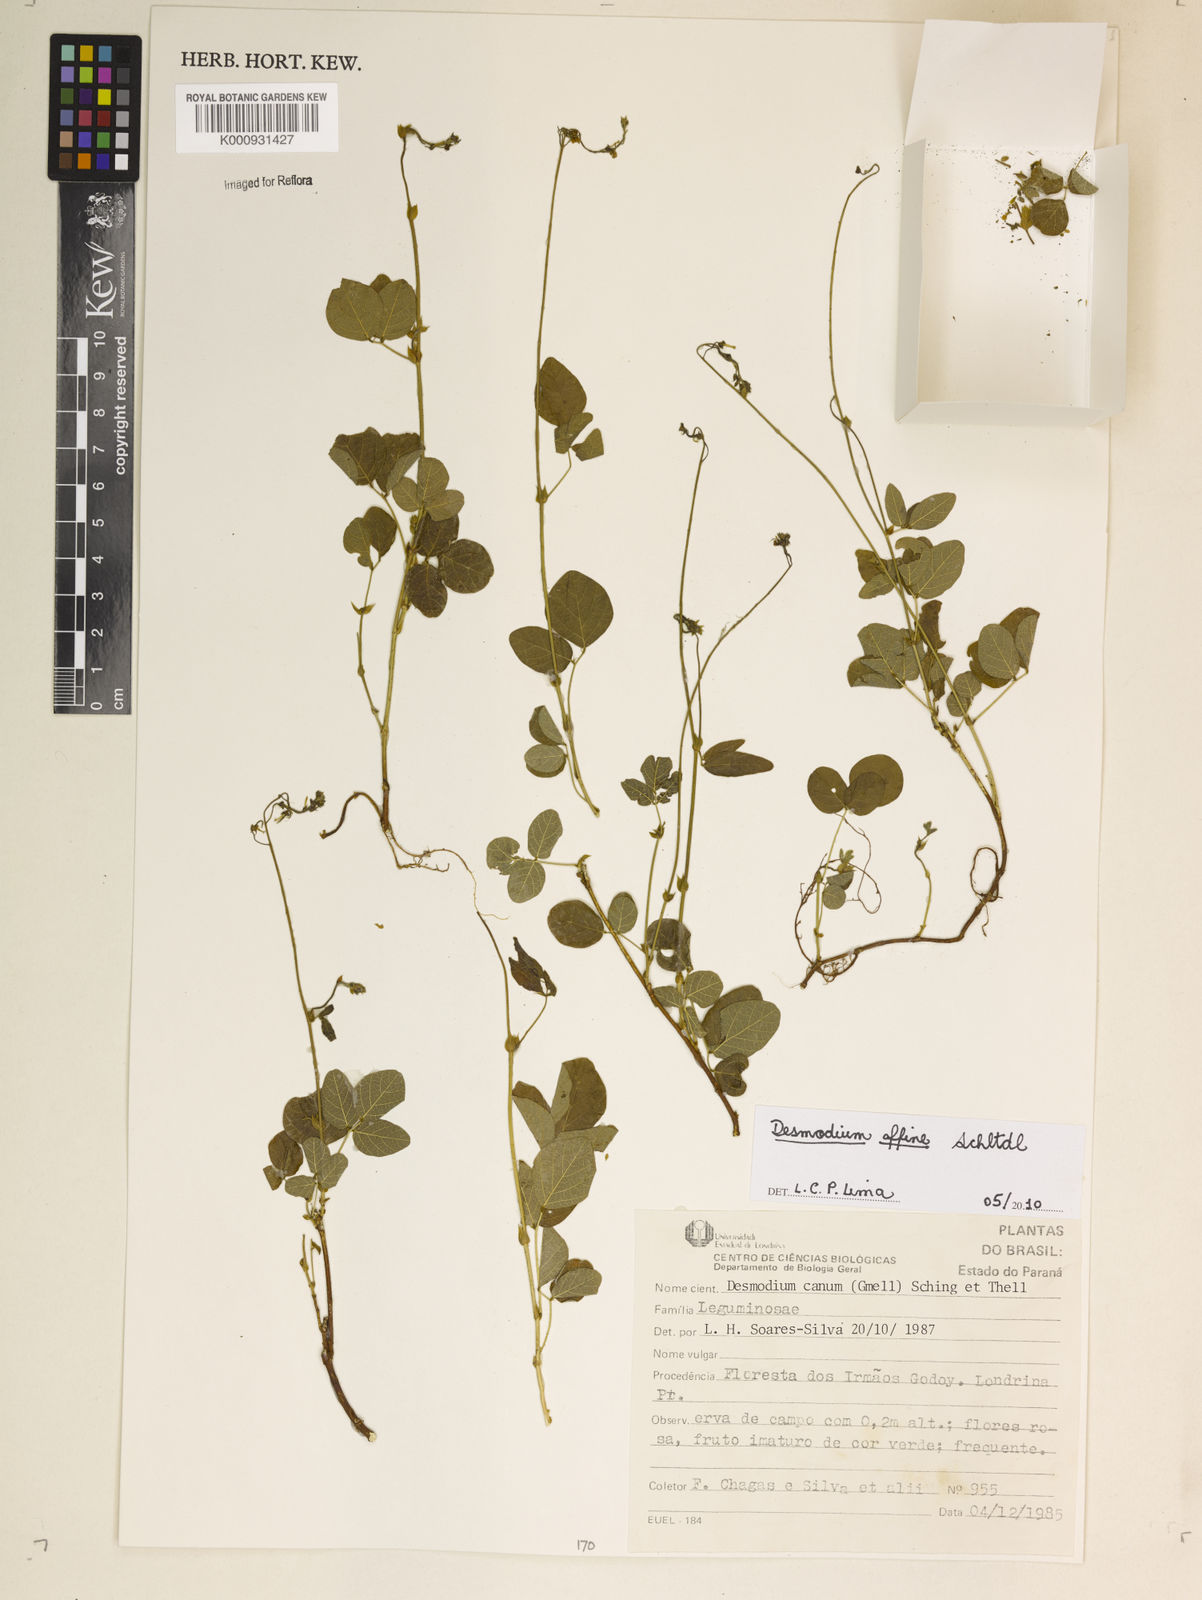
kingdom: Plantae
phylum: Tracheophyta
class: Magnoliopsida
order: Fabales
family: Fabaceae
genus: Desmodium
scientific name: Desmodium affine
